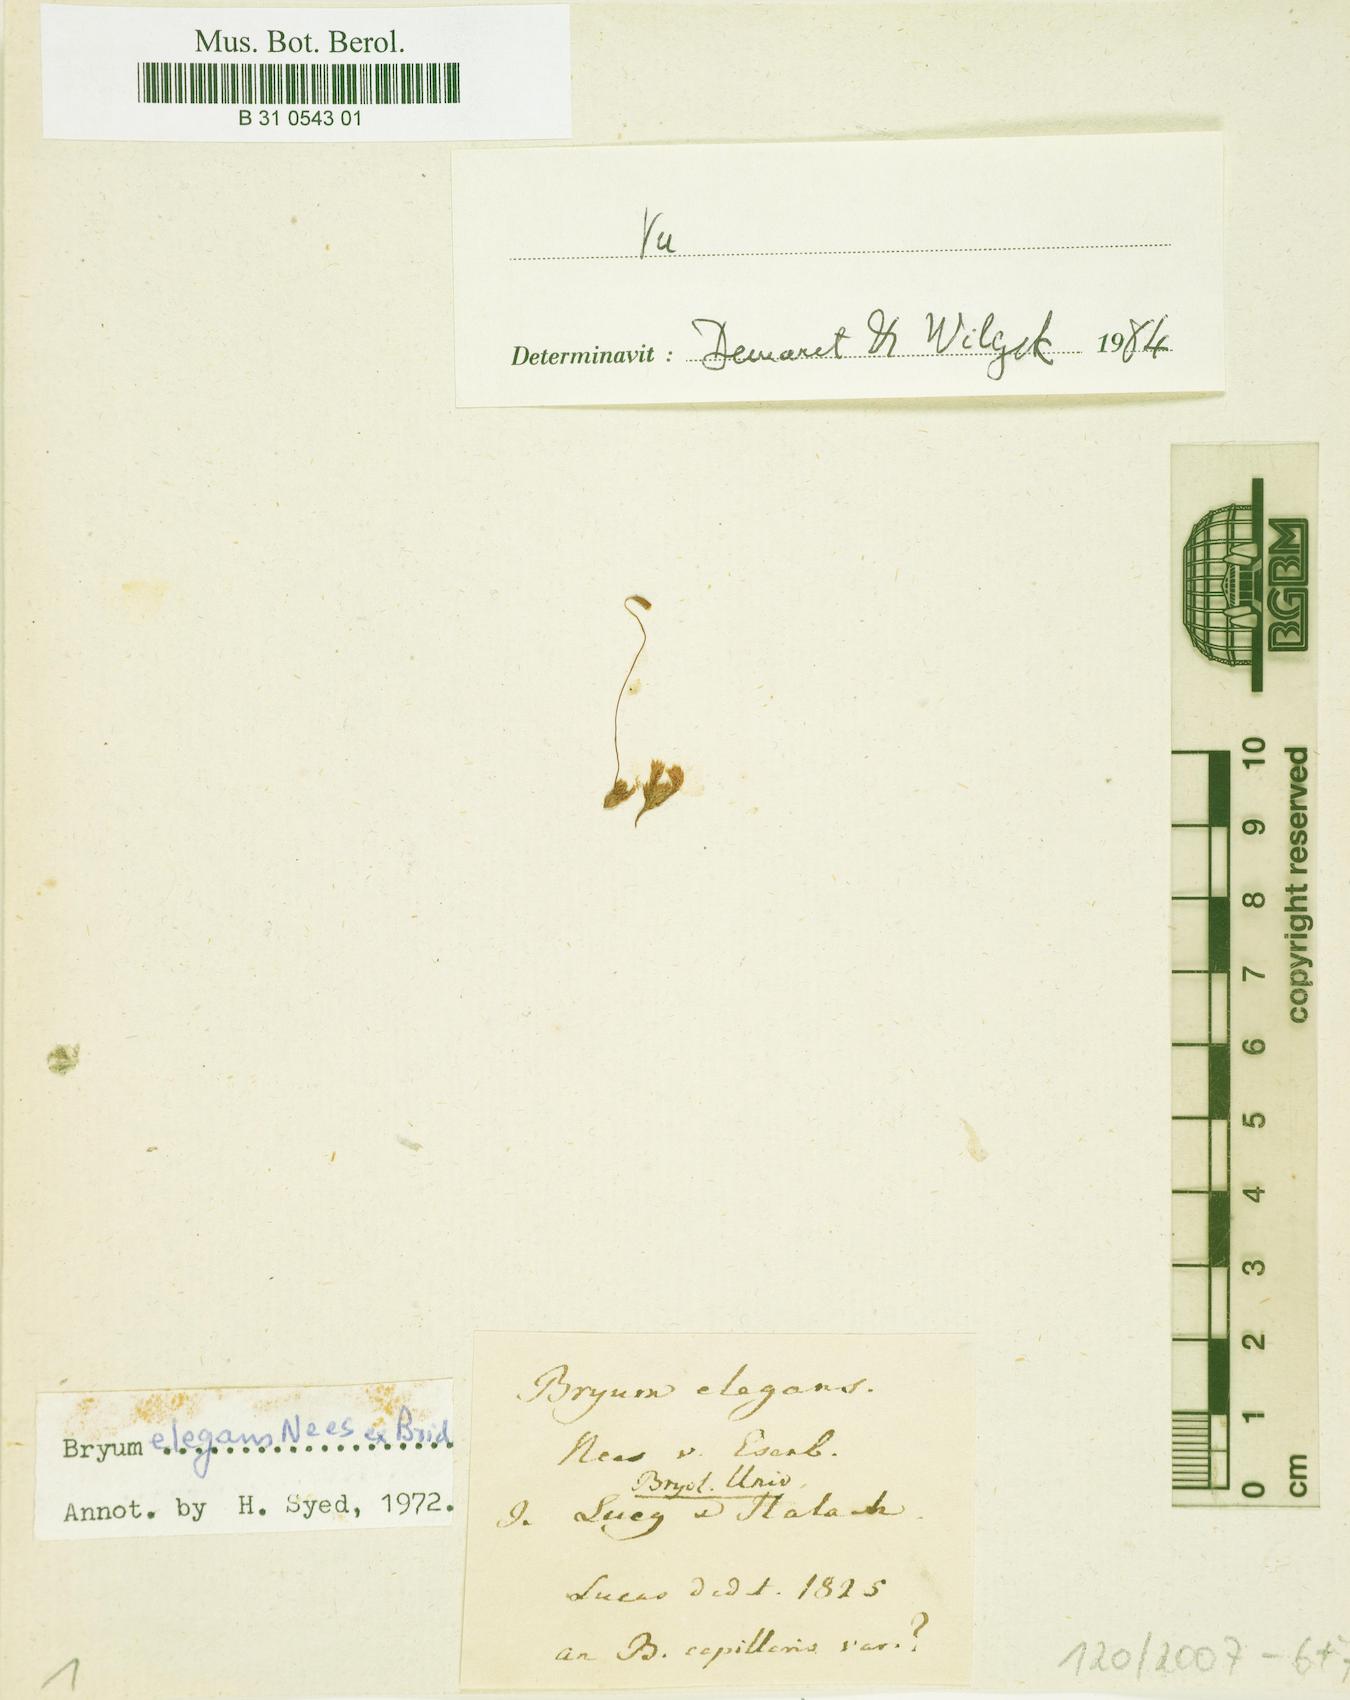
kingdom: Plantae
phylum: Bryophyta
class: Bryopsida
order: Bryales
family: Bryaceae
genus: Bryum
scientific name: Bryum elegans
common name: Elegant bryum
